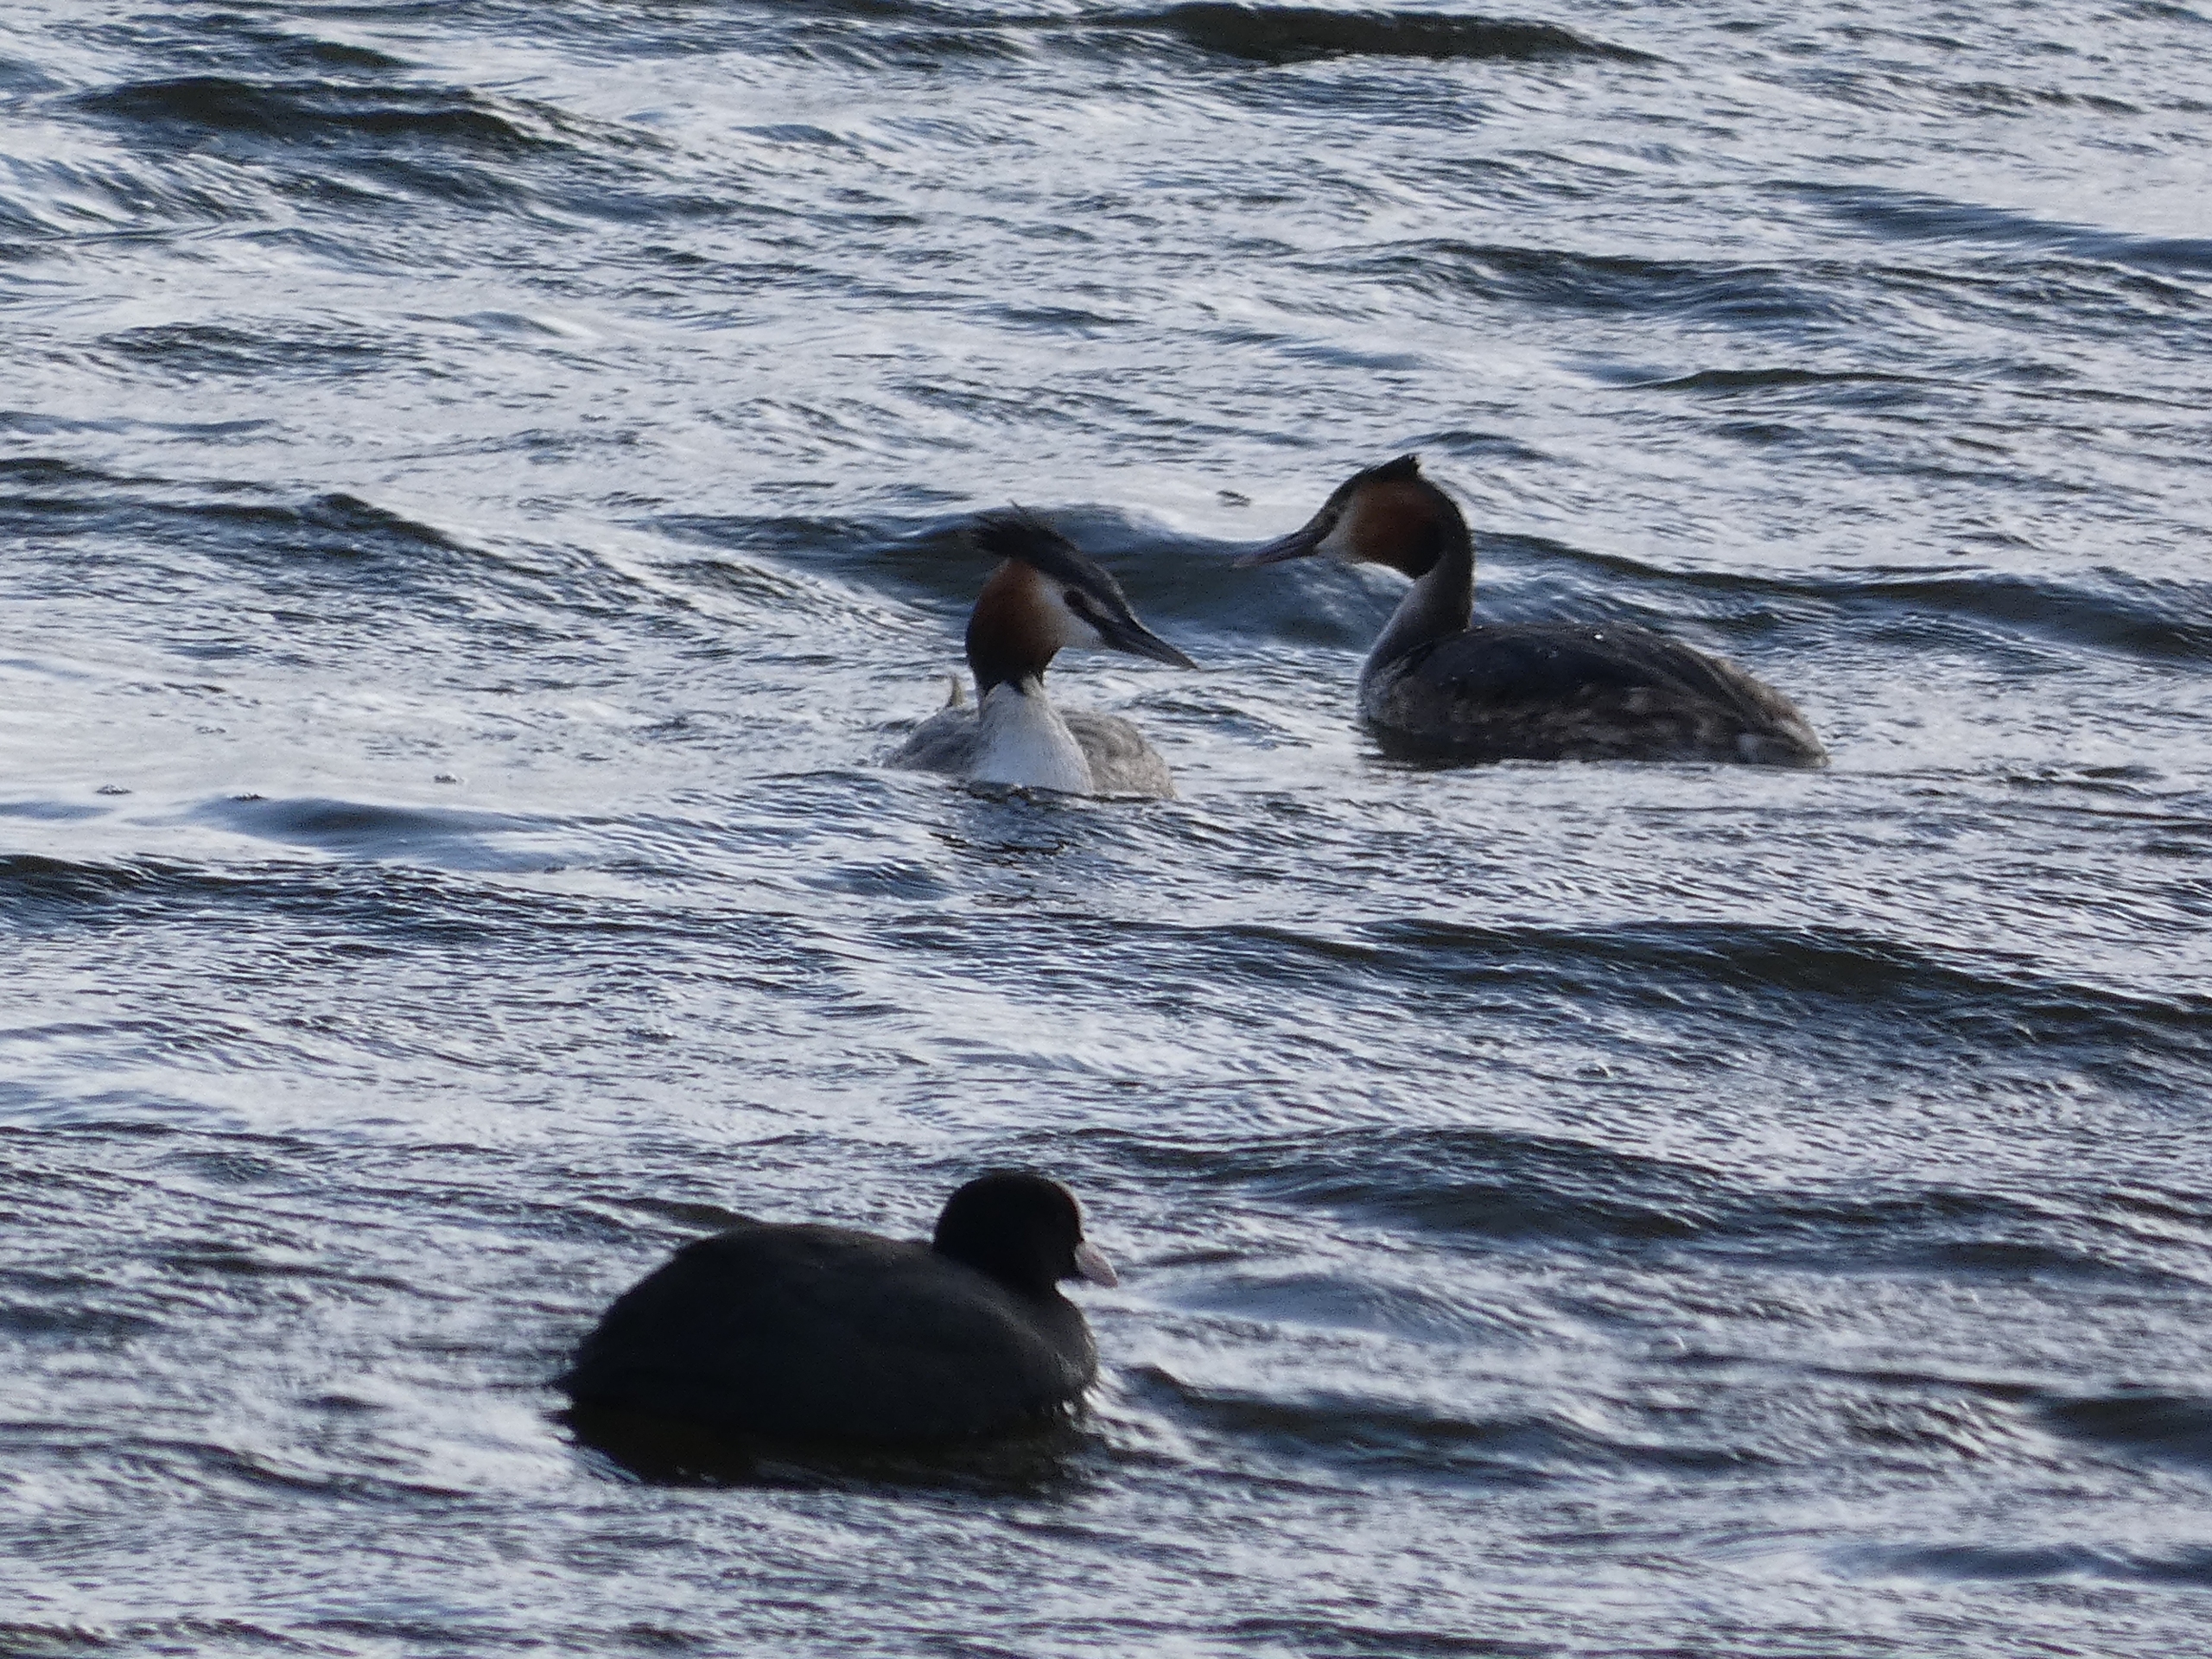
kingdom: Animalia
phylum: Chordata
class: Aves
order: Podicipediformes
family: Podicipedidae
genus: Podiceps
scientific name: Podiceps cristatus
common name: Toppet lappedykker
